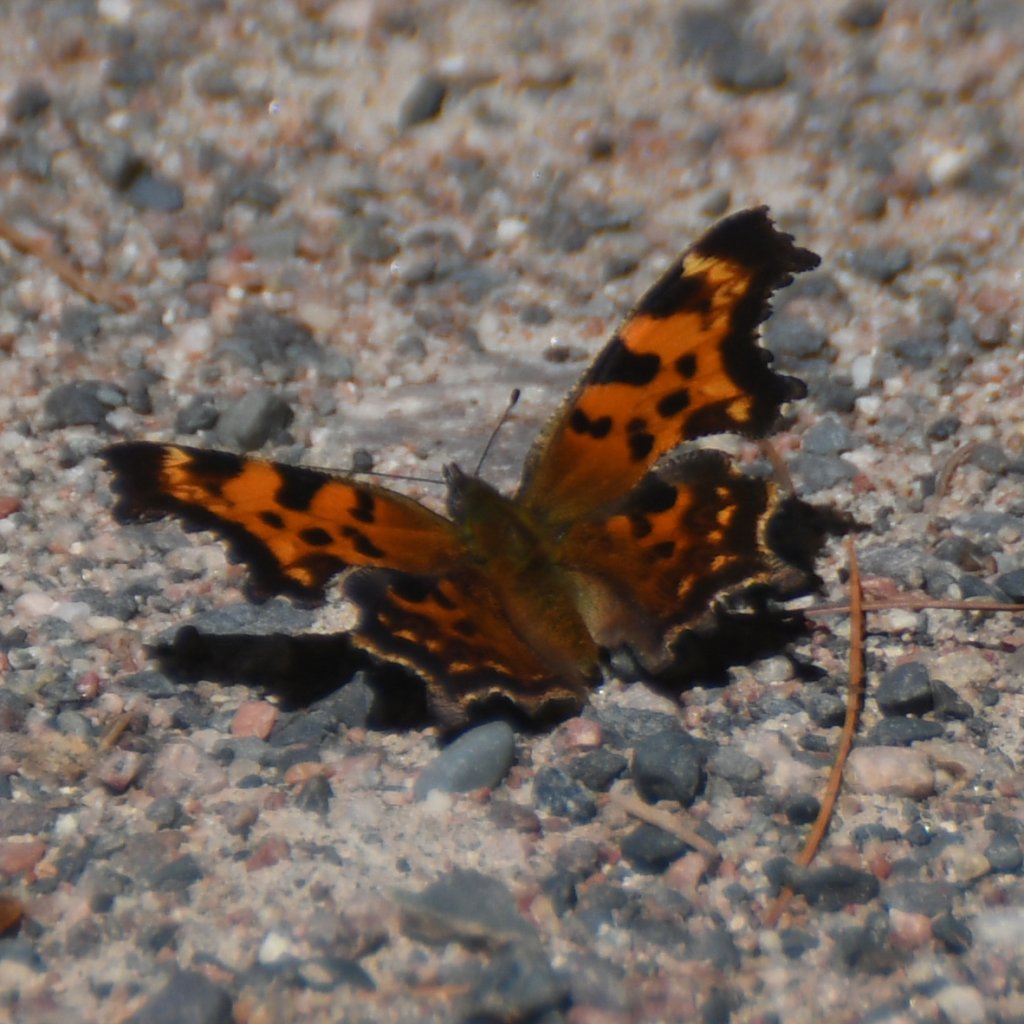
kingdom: Animalia
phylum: Arthropoda
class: Insecta
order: Lepidoptera
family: Nymphalidae
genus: Polygonia
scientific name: Polygonia faunus
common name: Green Comma
